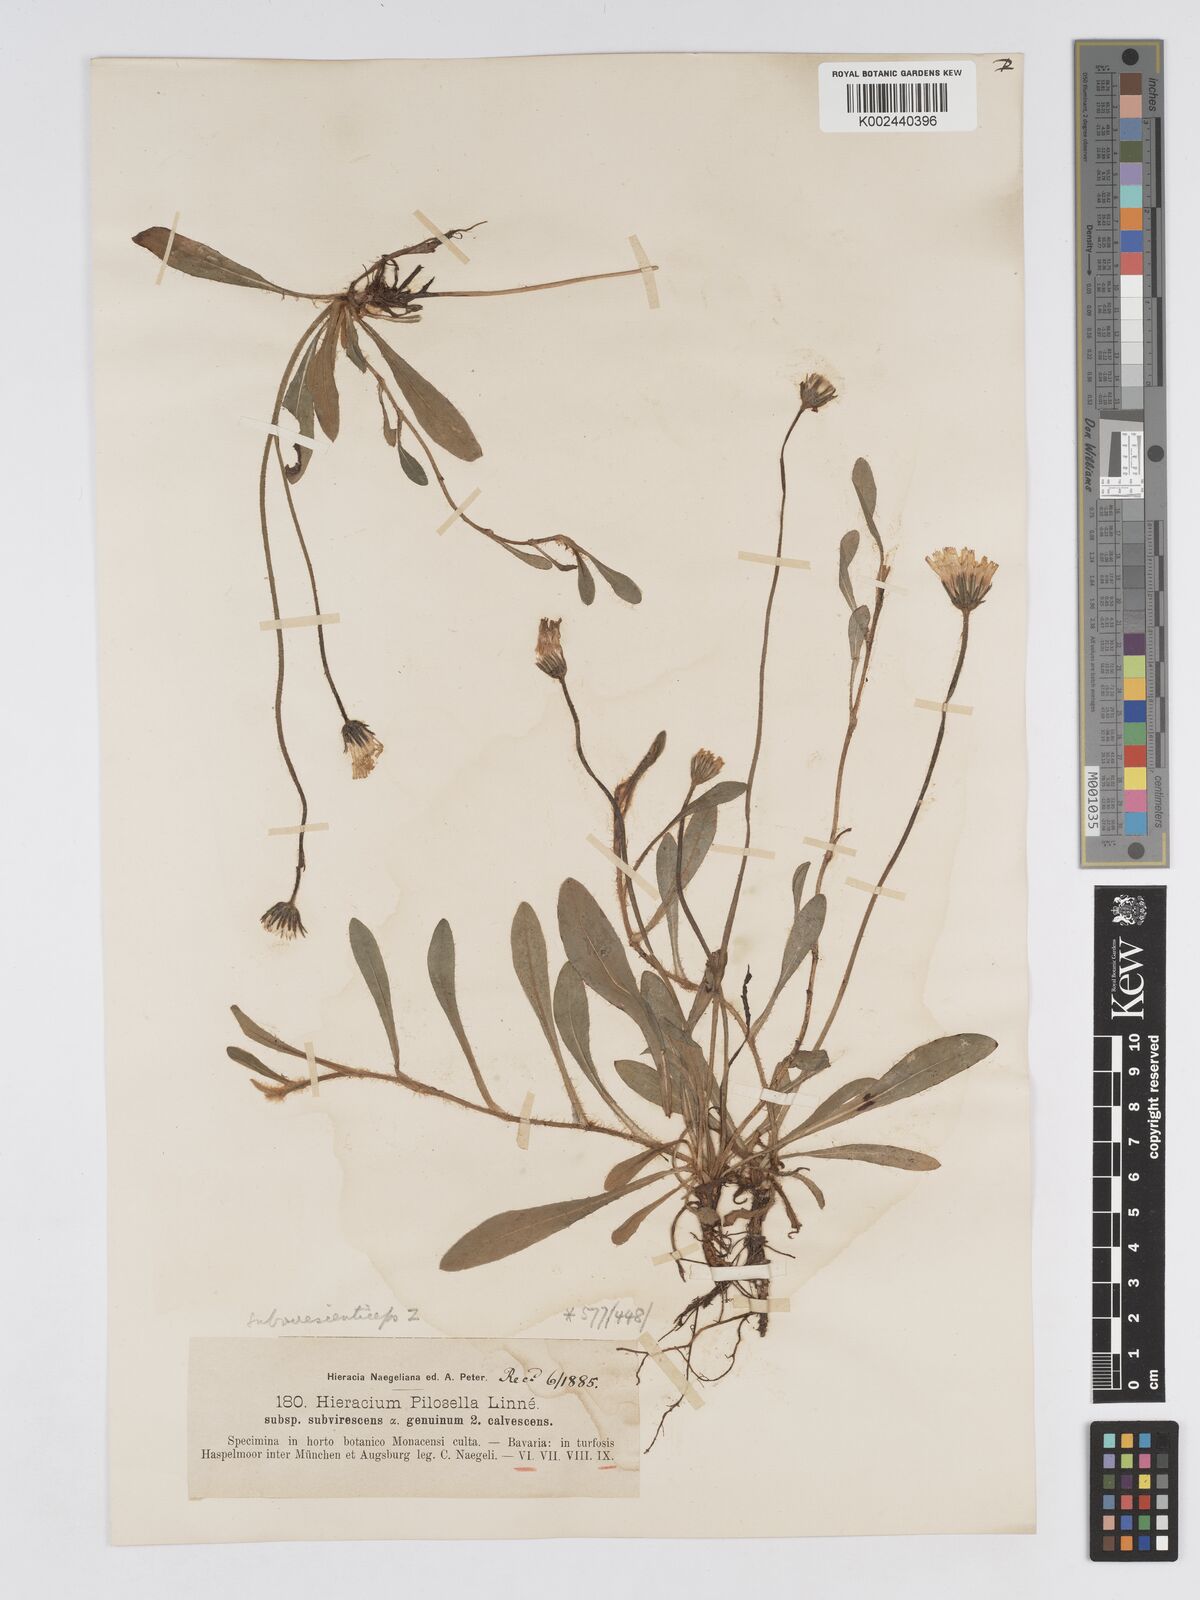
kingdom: Plantae
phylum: Tracheophyta
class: Magnoliopsida
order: Asterales
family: Asteraceae
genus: Pilosella
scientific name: Pilosella officinarum
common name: Mouse-ear hawkweed
